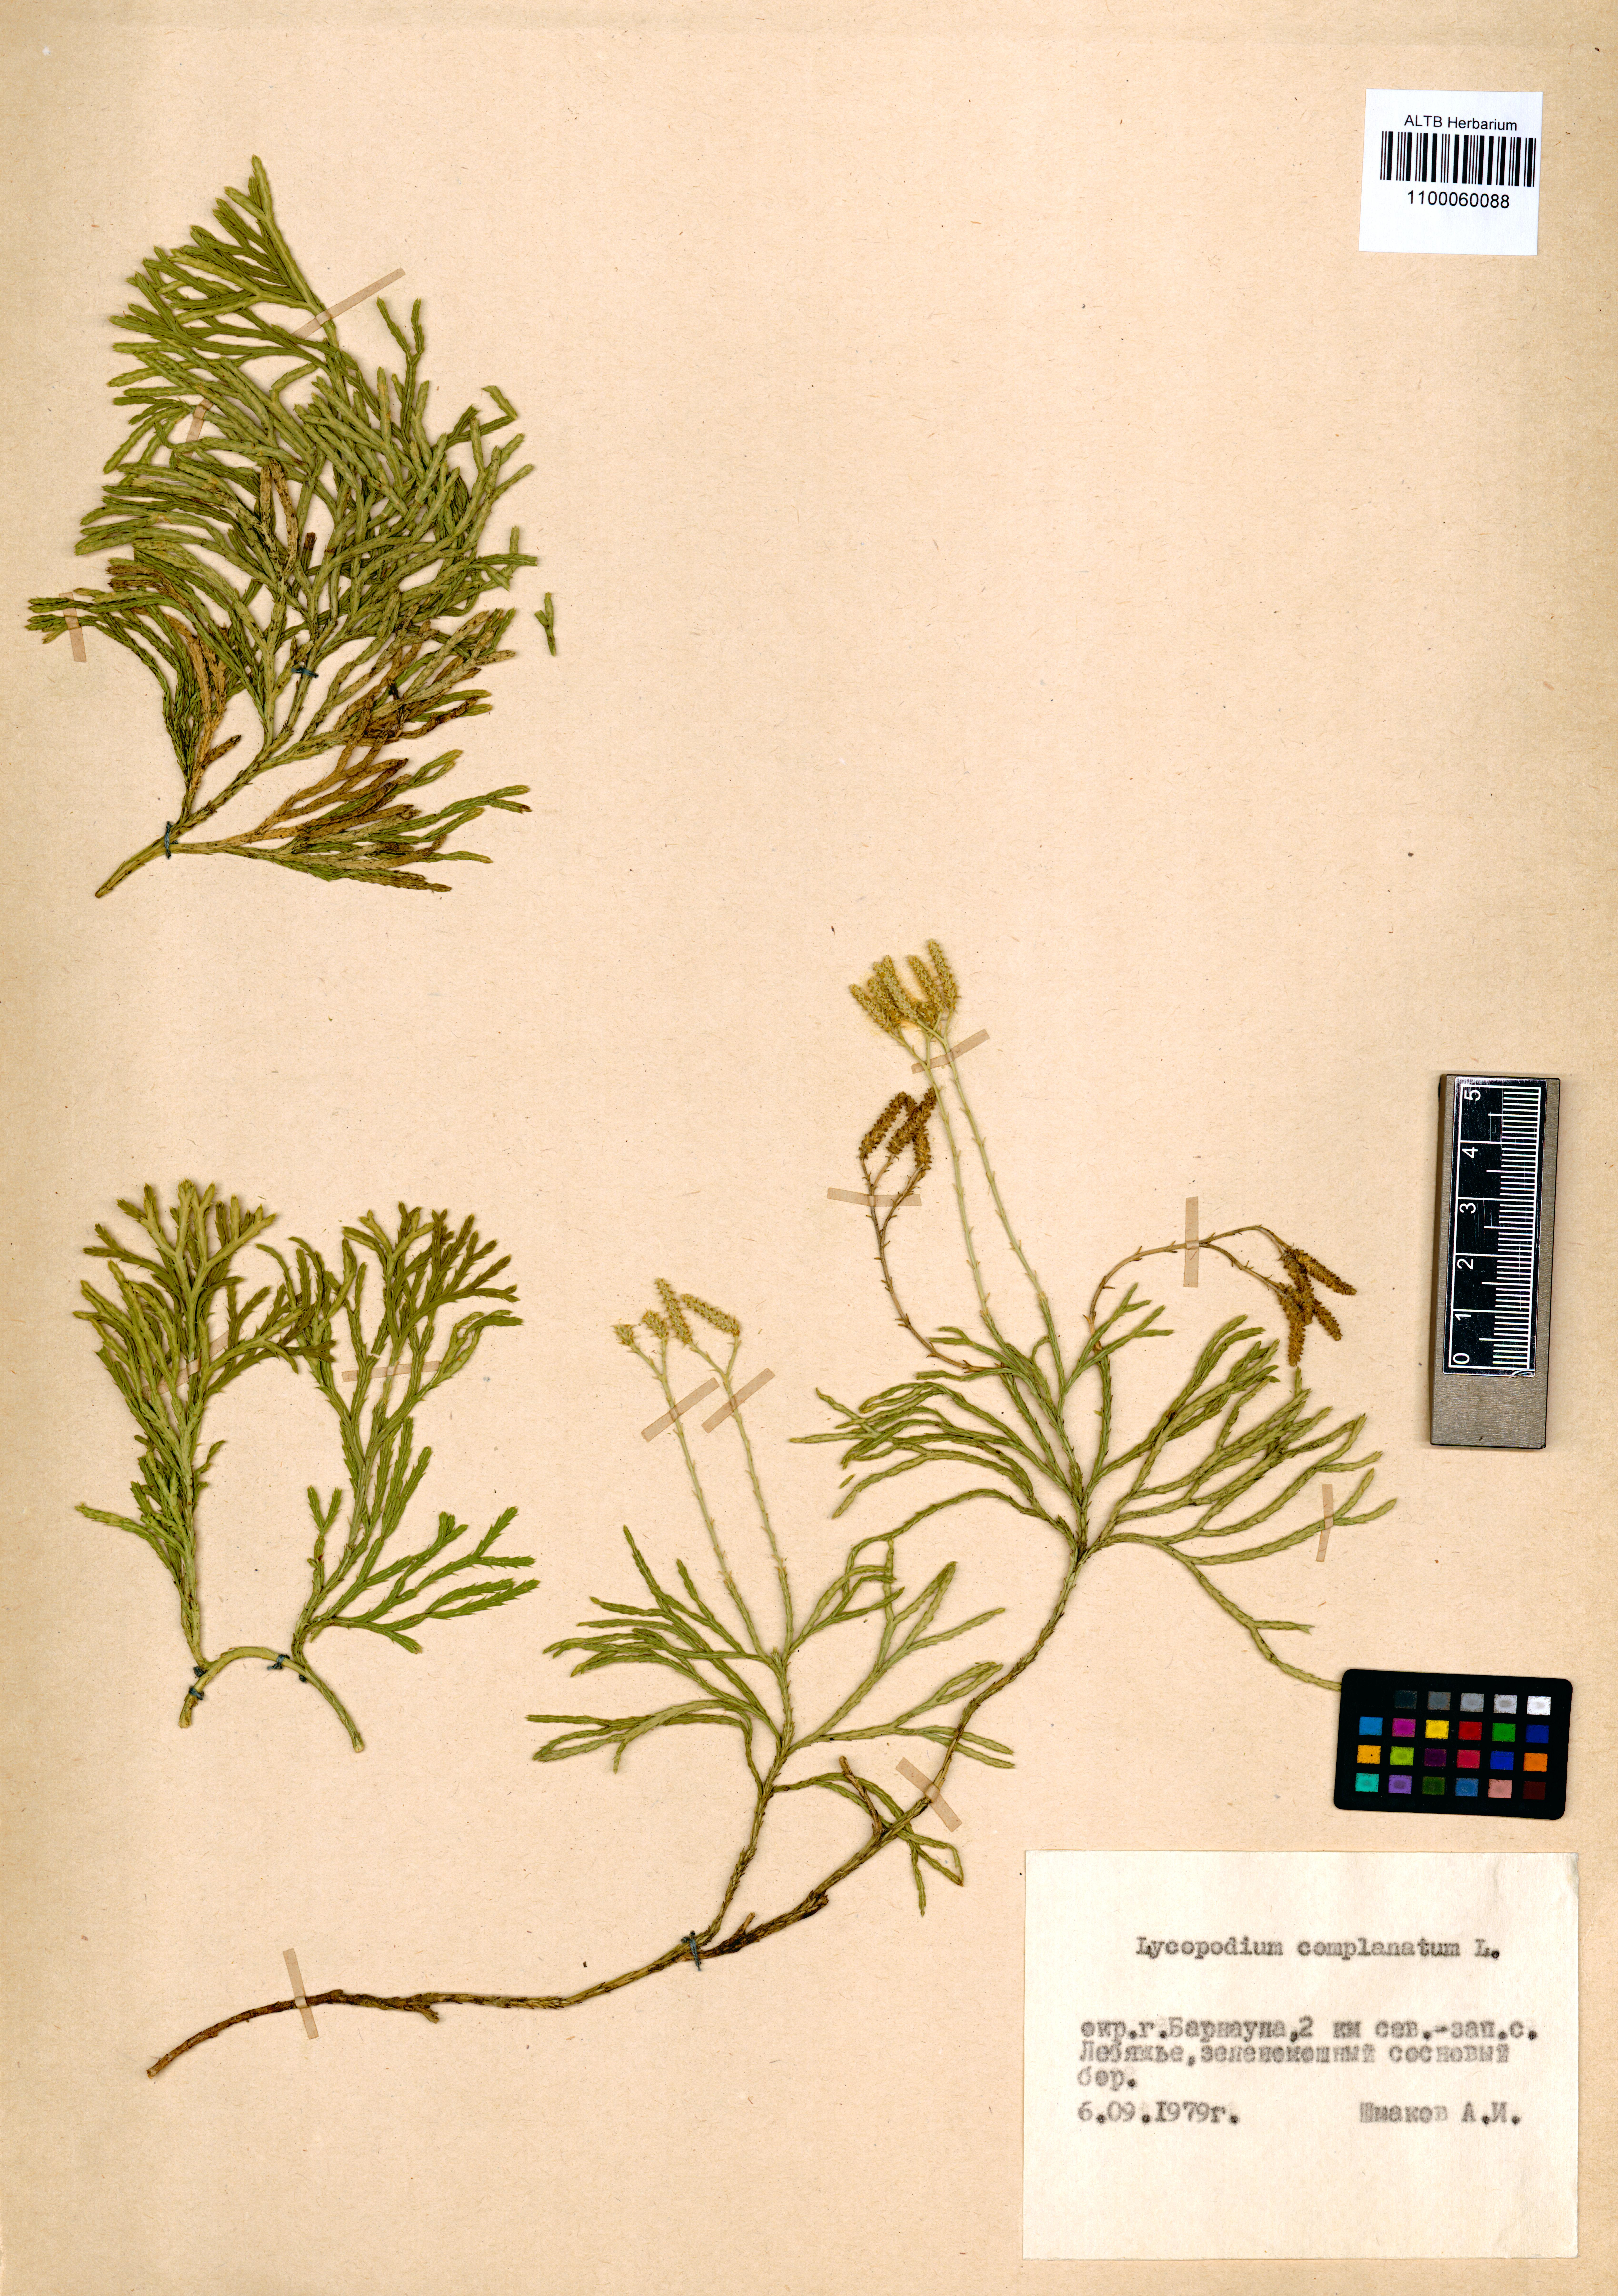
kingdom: Plantae
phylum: Tracheophyta
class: Lycopodiopsida
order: Lycopodiales
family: Lycopodiaceae
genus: Diphasiastrum
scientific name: Diphasiastrum complanatum
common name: Northern running-pine
